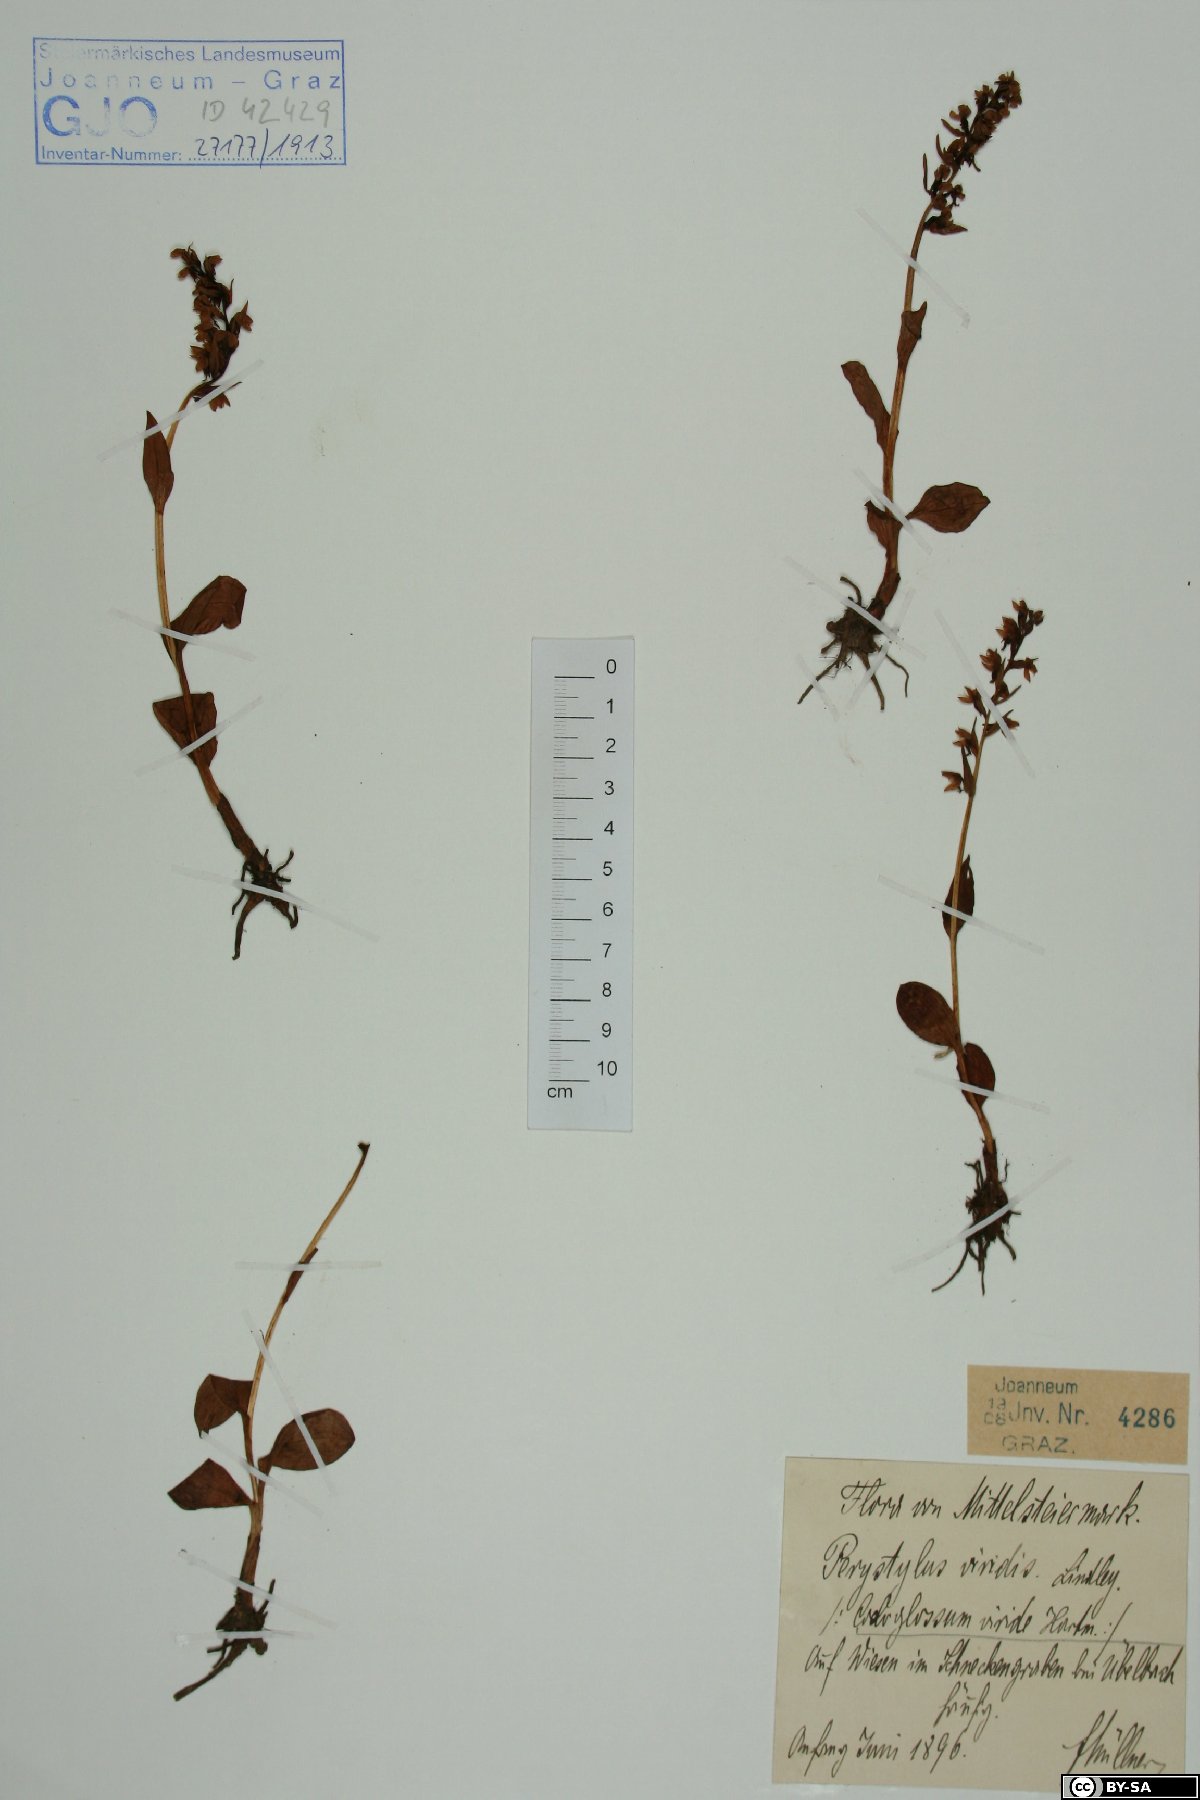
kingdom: Plantae
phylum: Tracheophyta
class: Liliopsida
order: Asparagales
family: Orchidaceae
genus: Dactylorhiza
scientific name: Dactylorhiza viridis
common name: Longbract frog orchid
